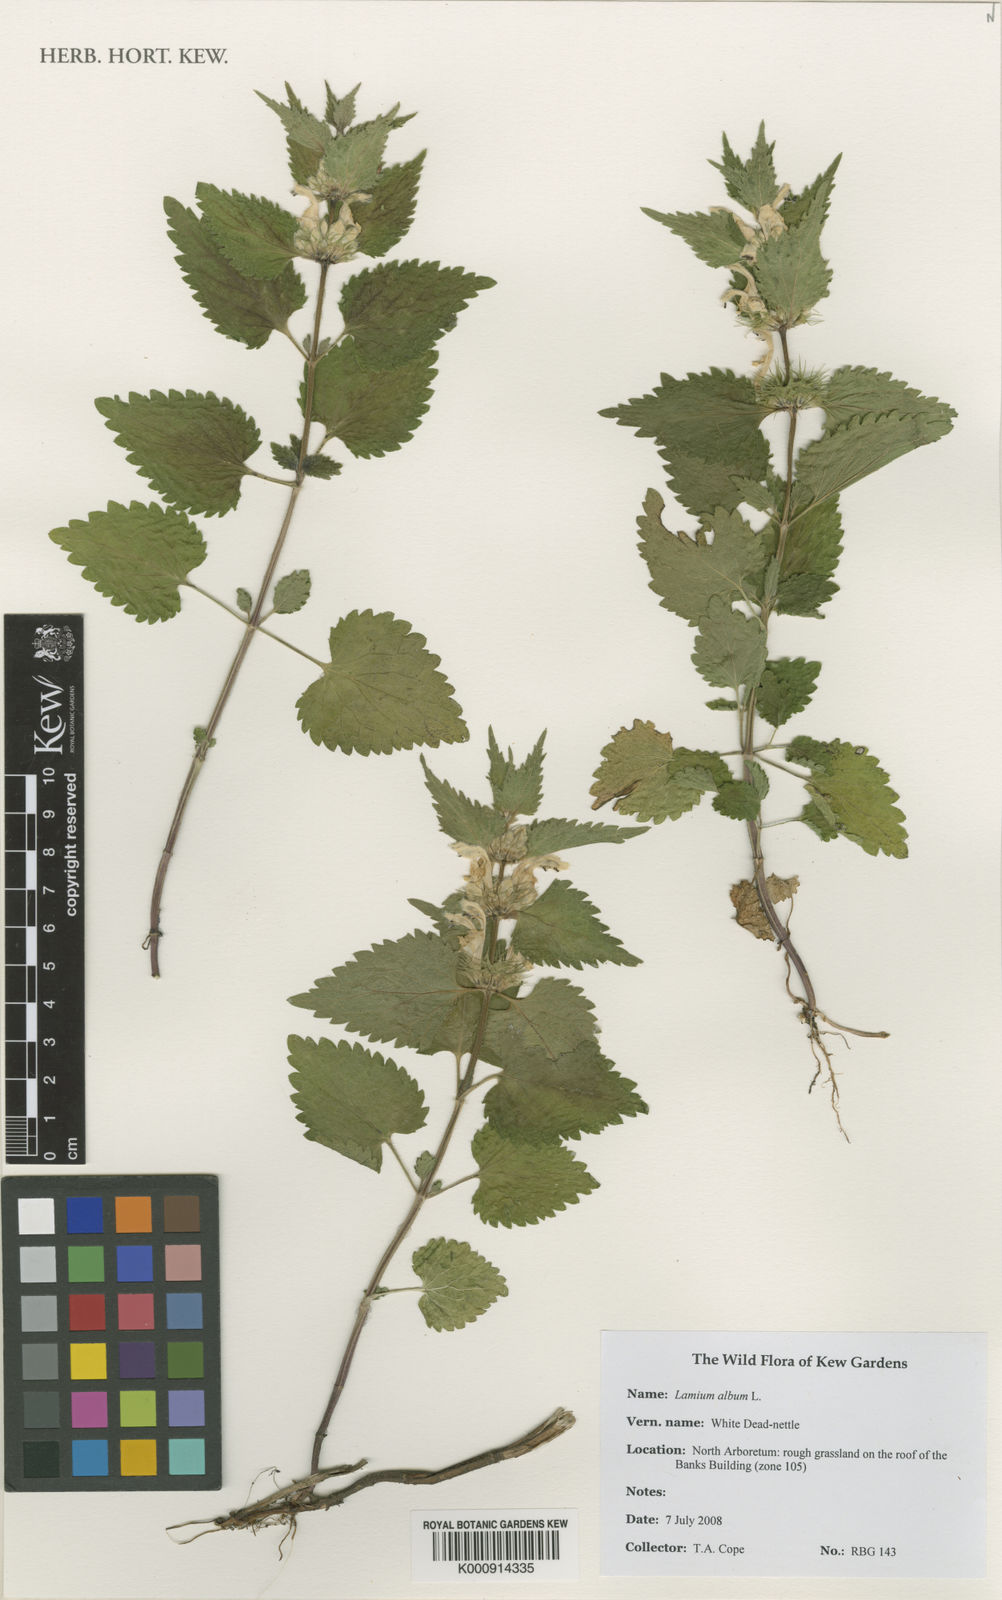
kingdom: Plantae
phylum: Tracheophyta
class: Magnoliopsida
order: Lamiales
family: Lamiaceae
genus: Lamium
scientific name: Lamium album
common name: White dead-nettle
